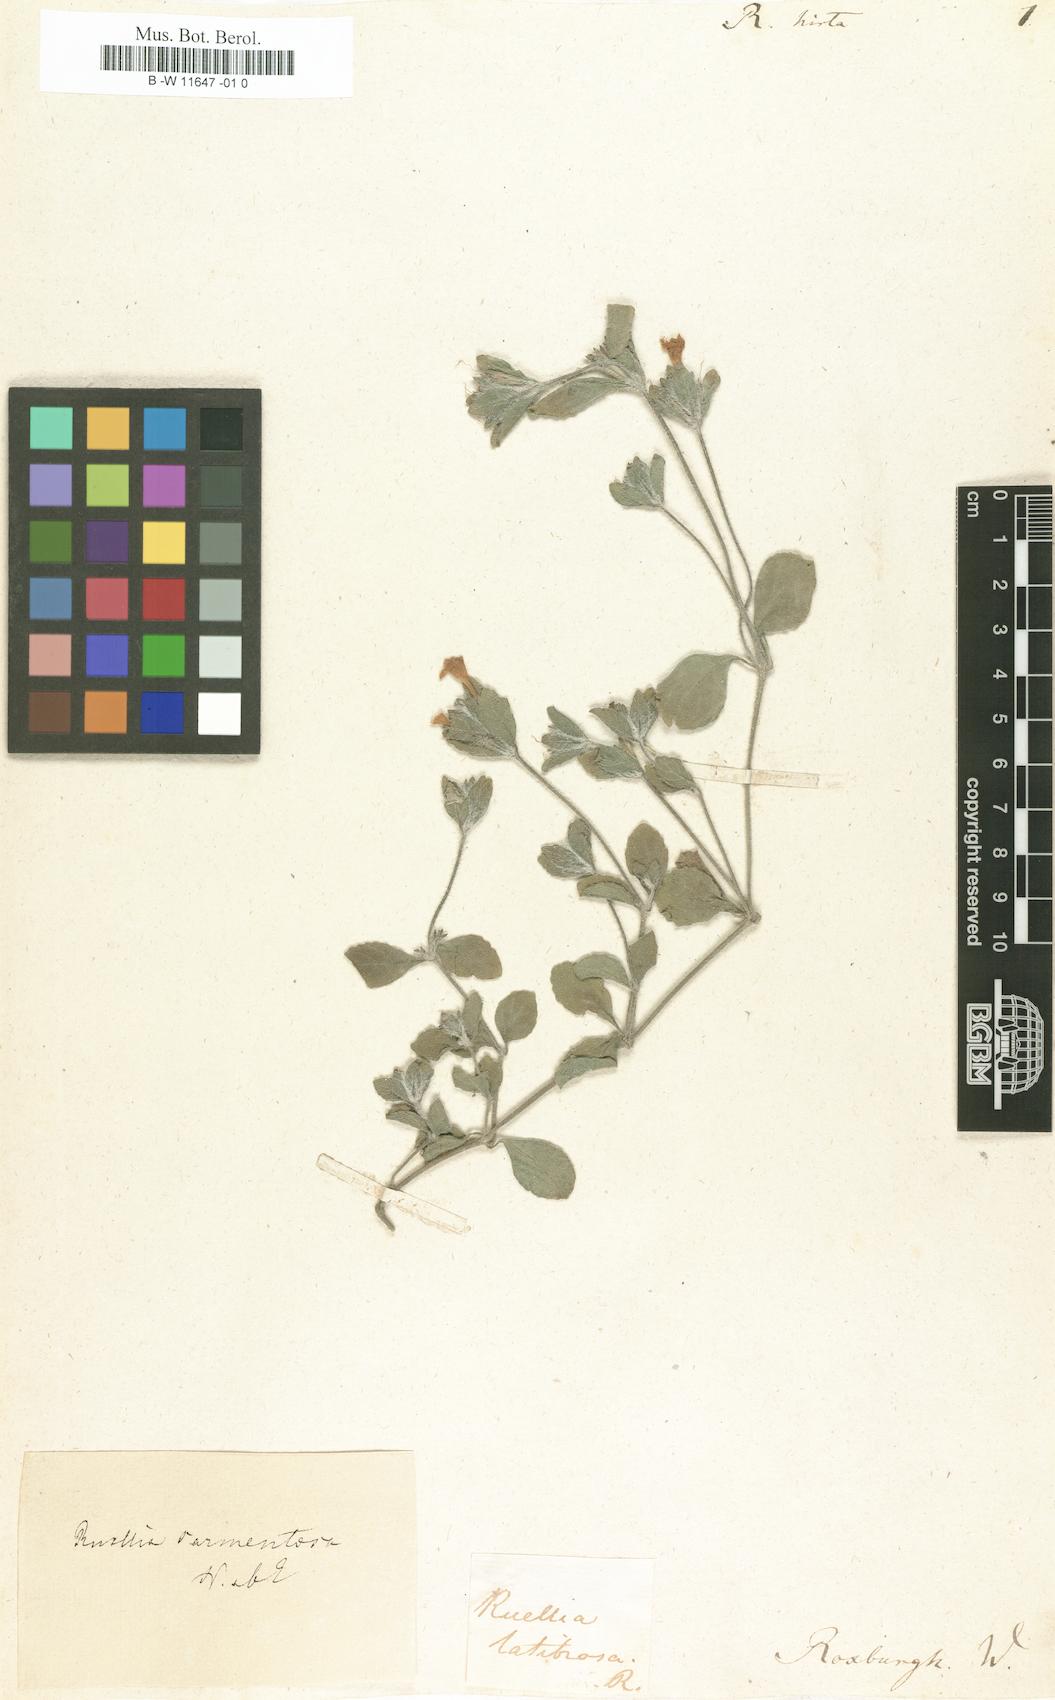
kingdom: Plantae
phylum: Tracheophyta
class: Magnoliopsida
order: Lamiales
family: Acanthaceae
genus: Strobilanthes
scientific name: Strobilanthes
